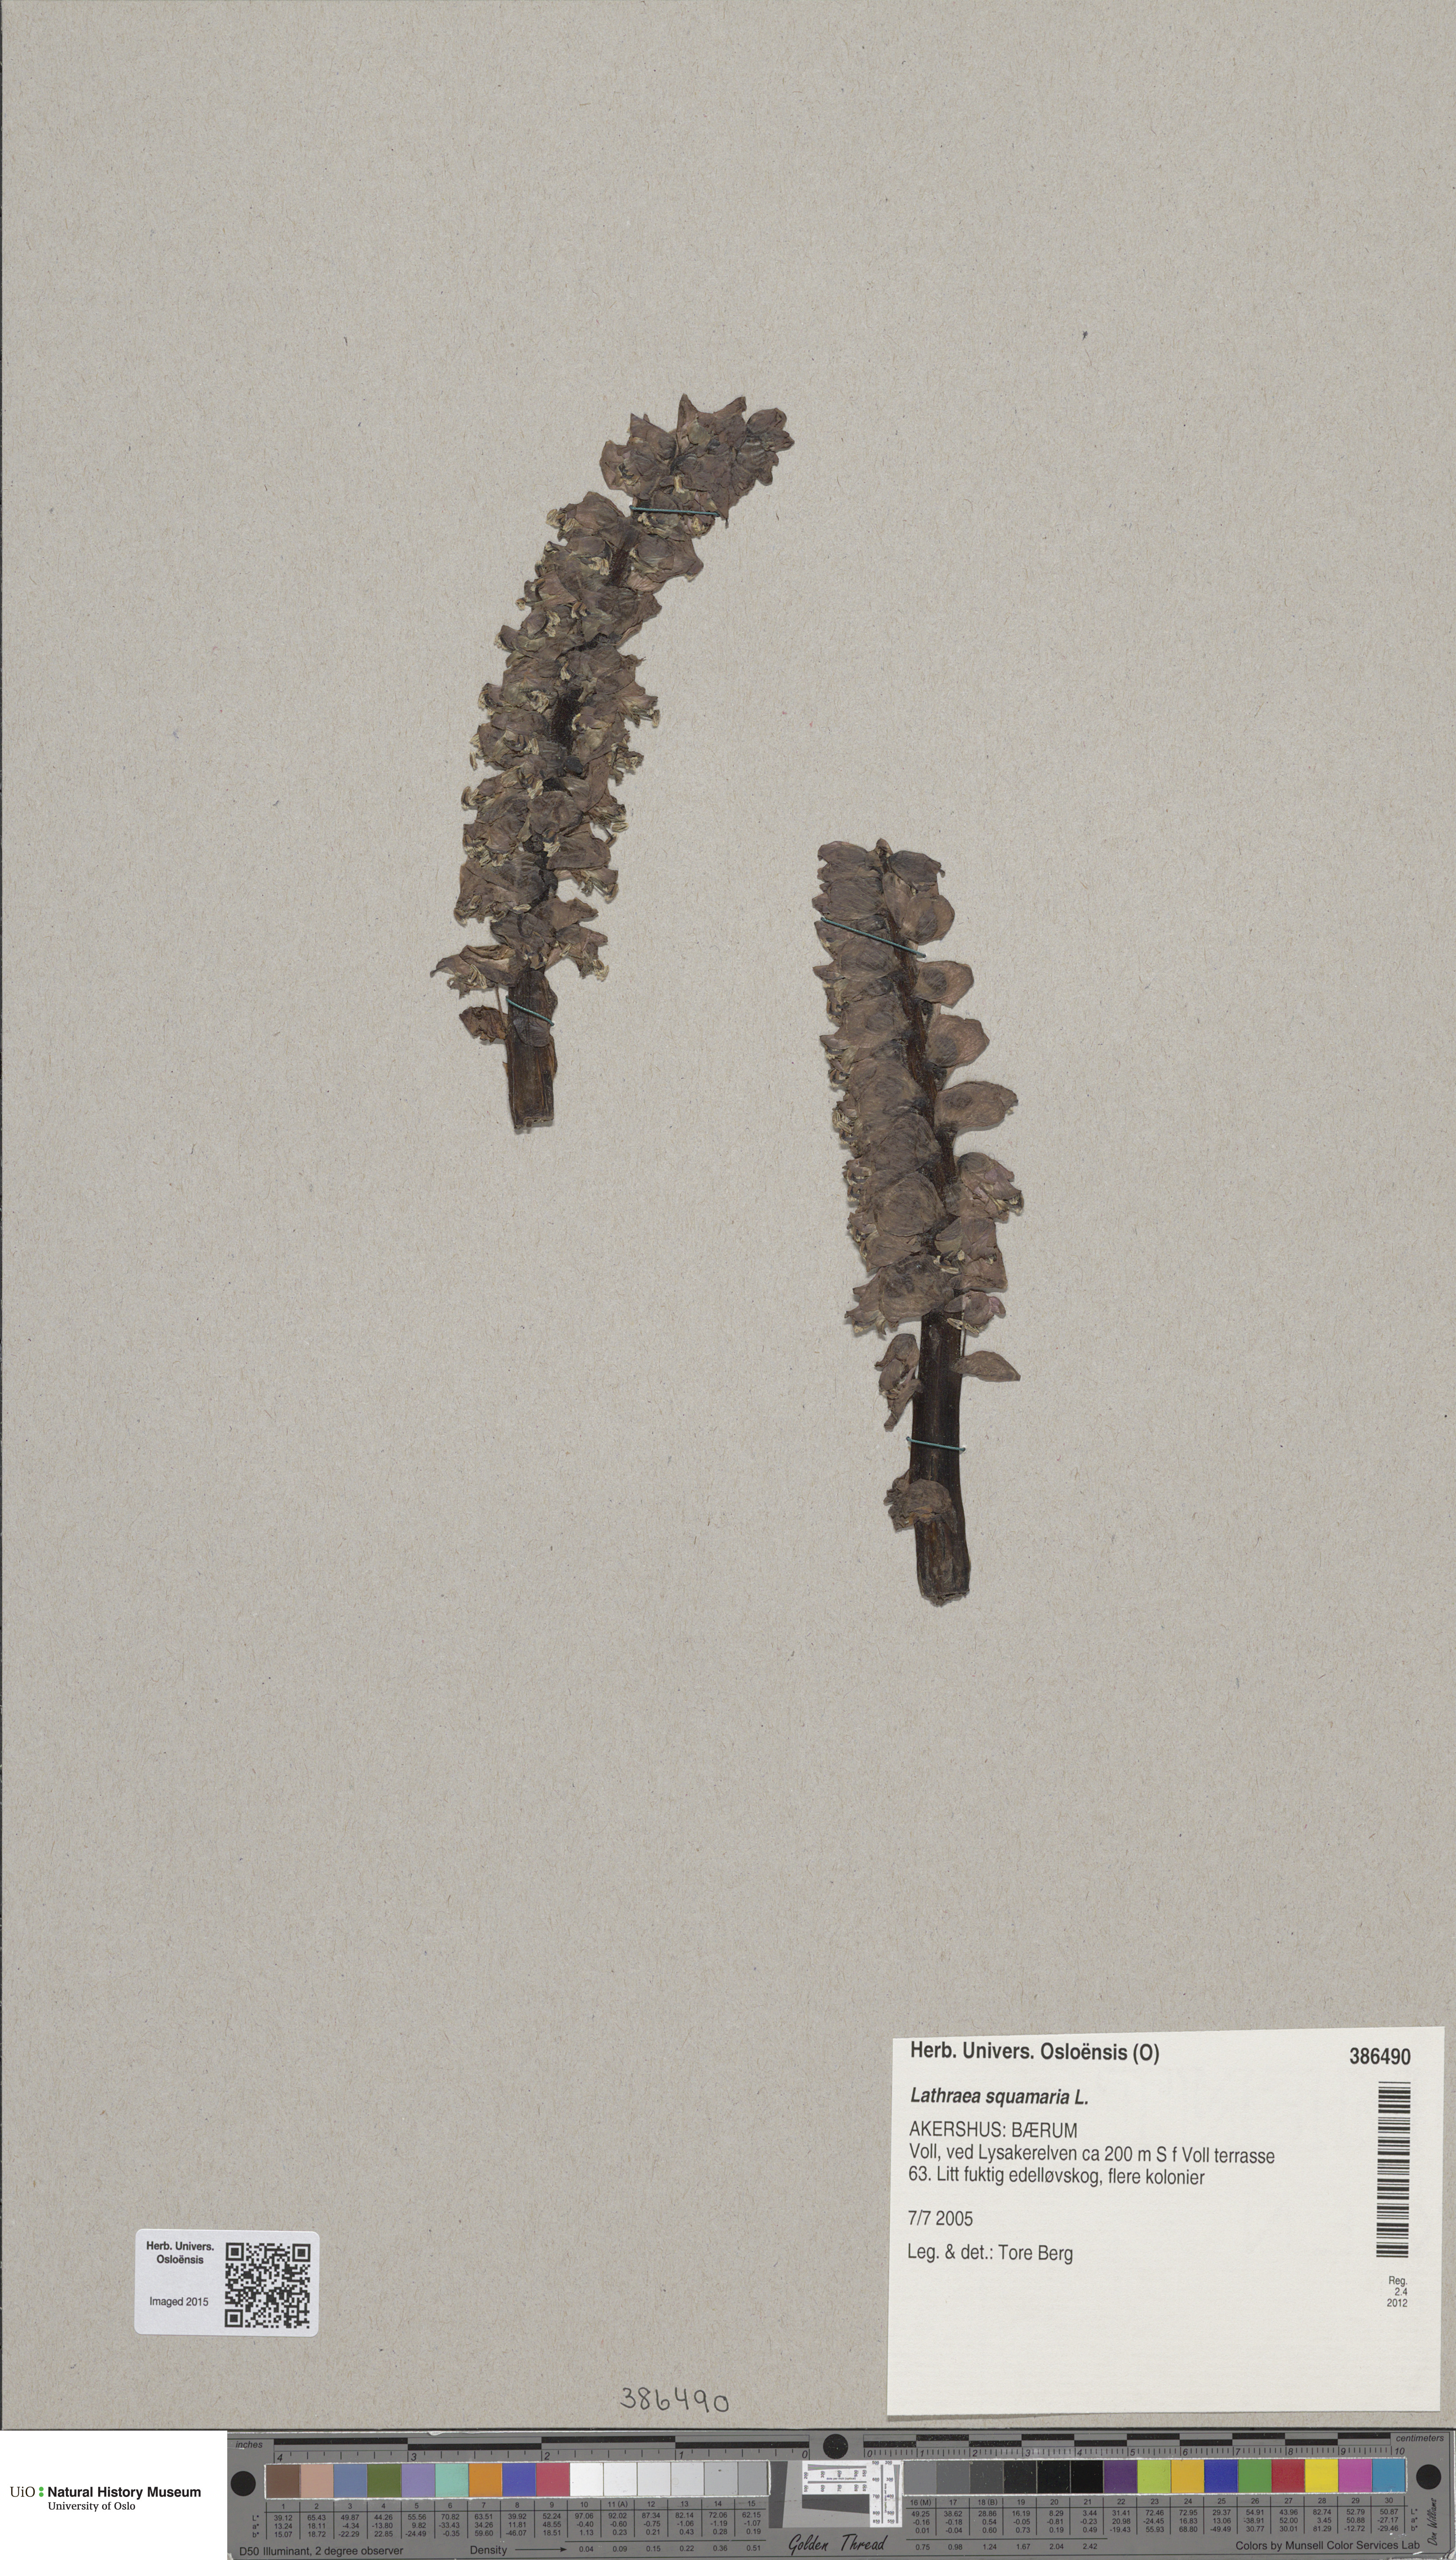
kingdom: Plantae
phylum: Tracheophyta
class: Magnoliopsida
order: Lamiales
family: Orobanchaceae
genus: Lathraea
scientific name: Lathraea squamaria
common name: Toothwort
